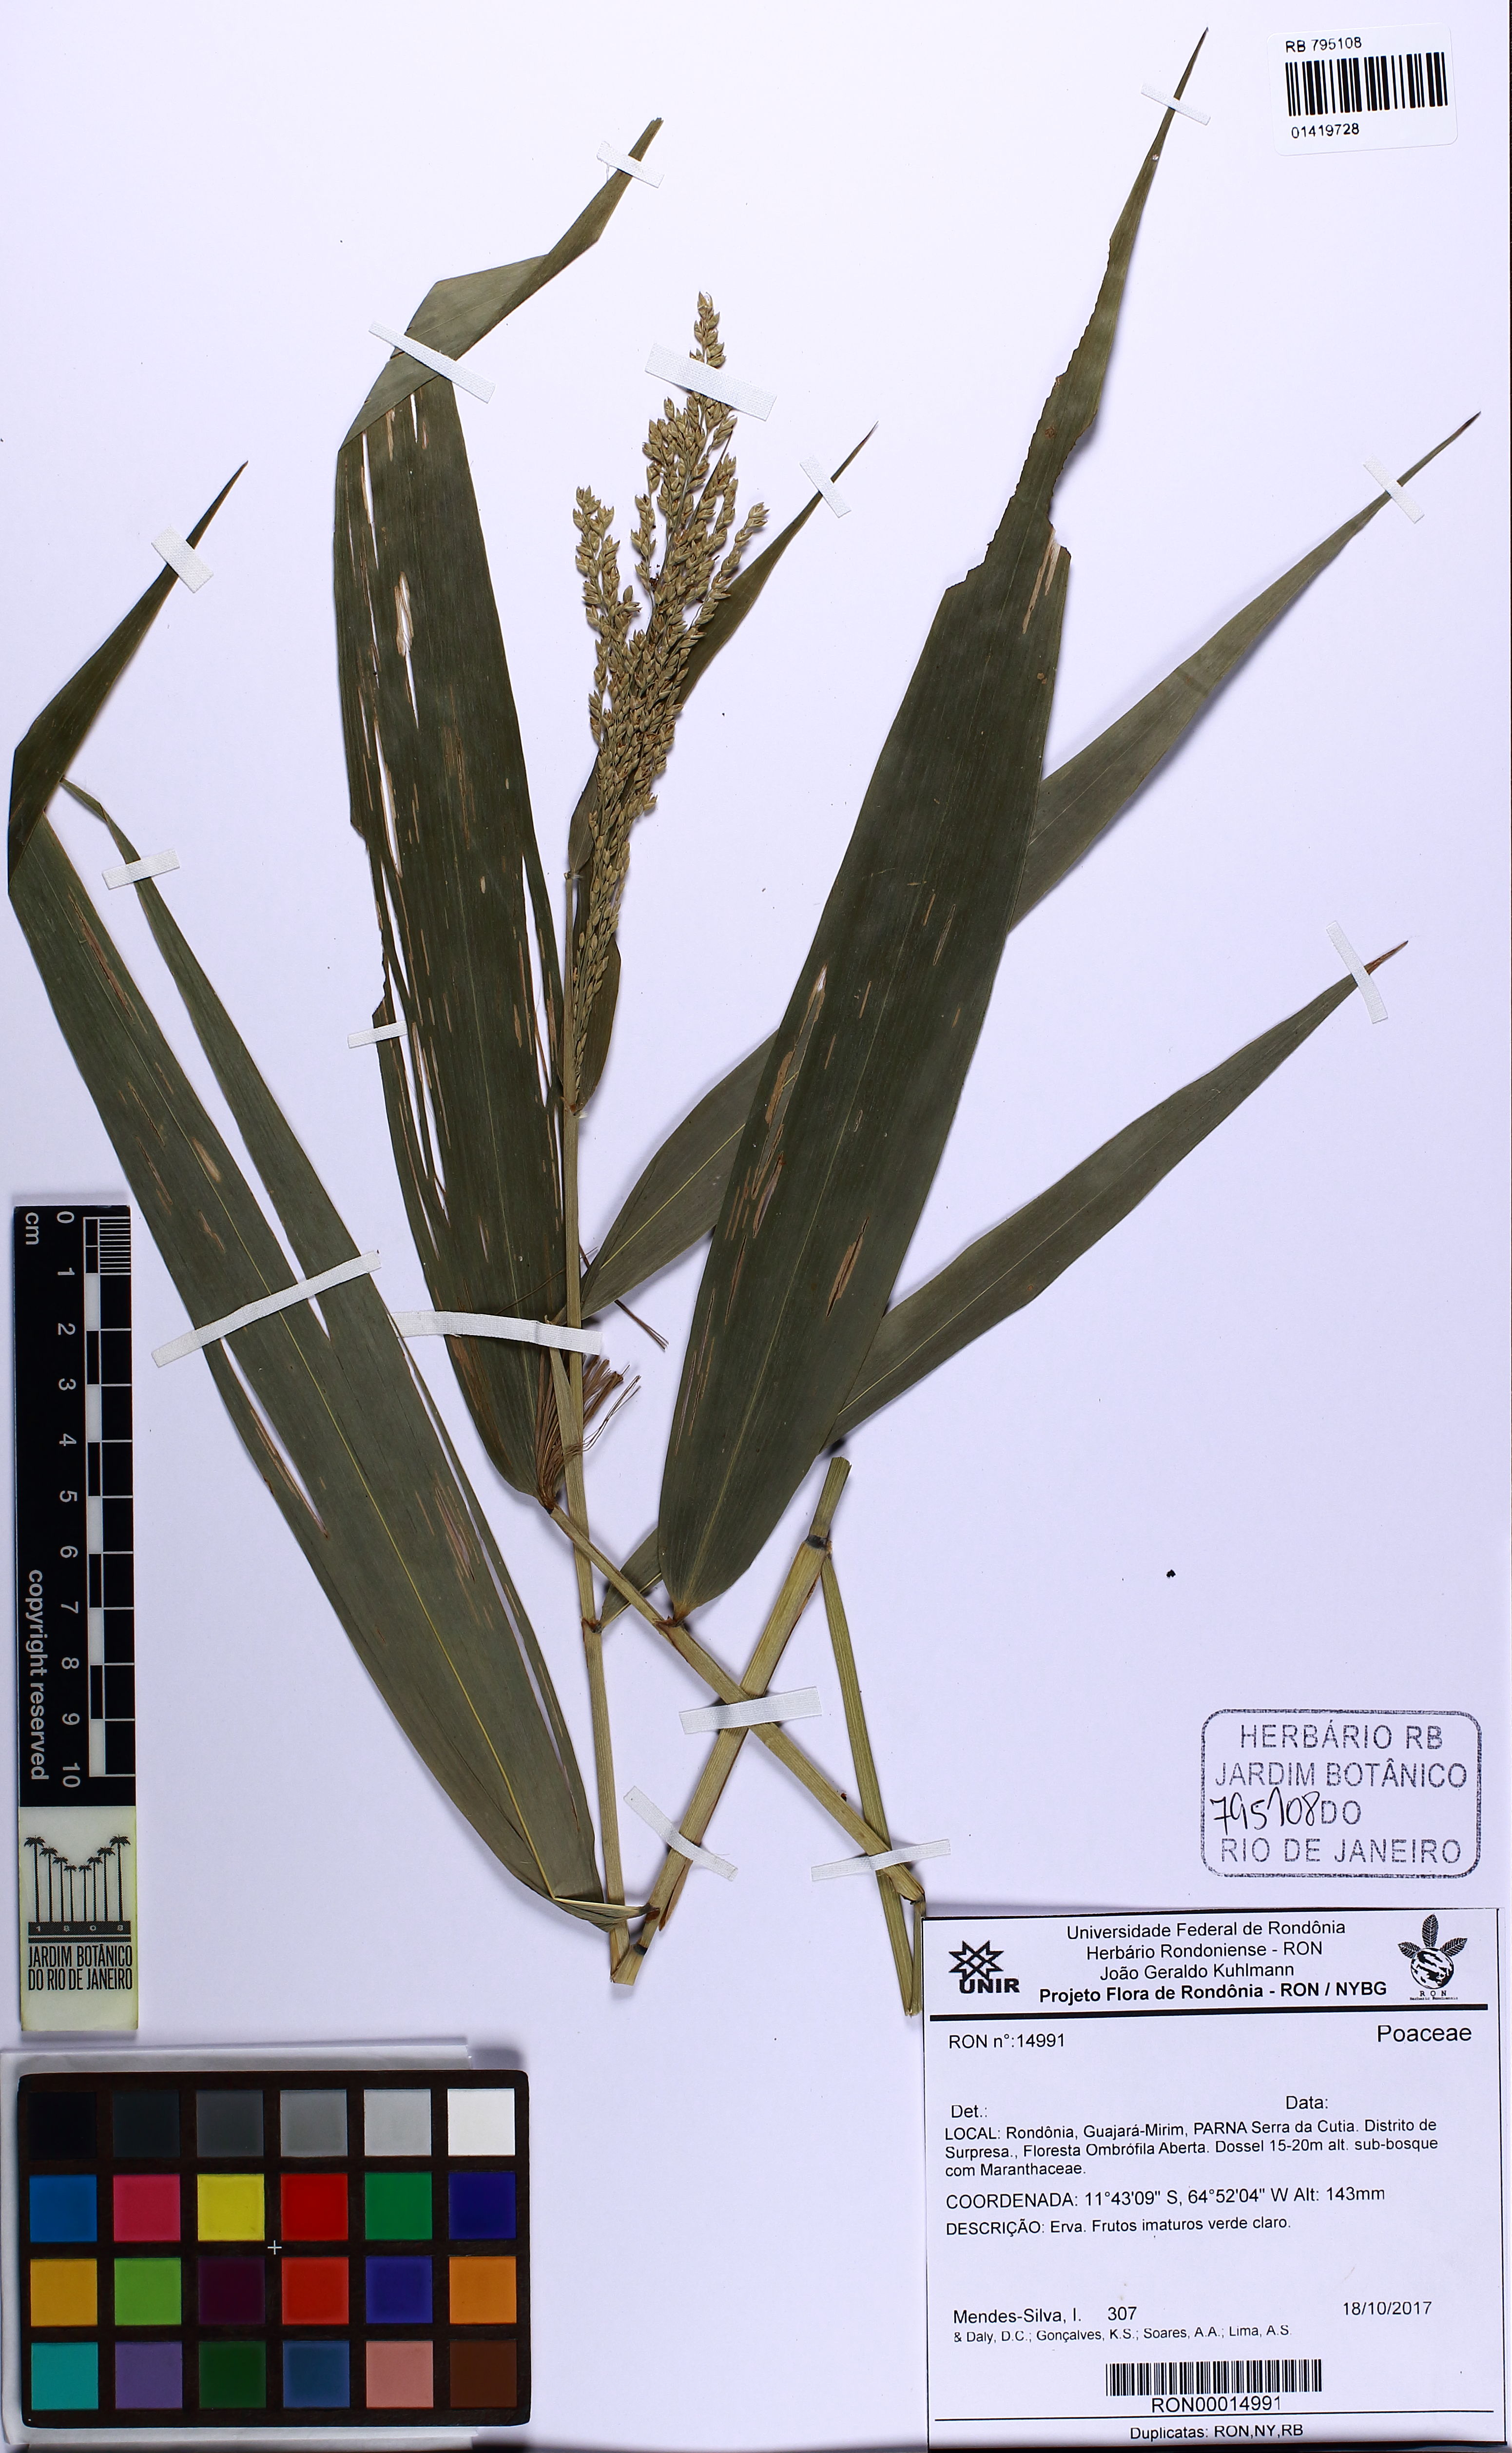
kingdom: Plantae
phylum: Tracheophyta
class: Liliopsida
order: Poales
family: Poaceae
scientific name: Poaceae
